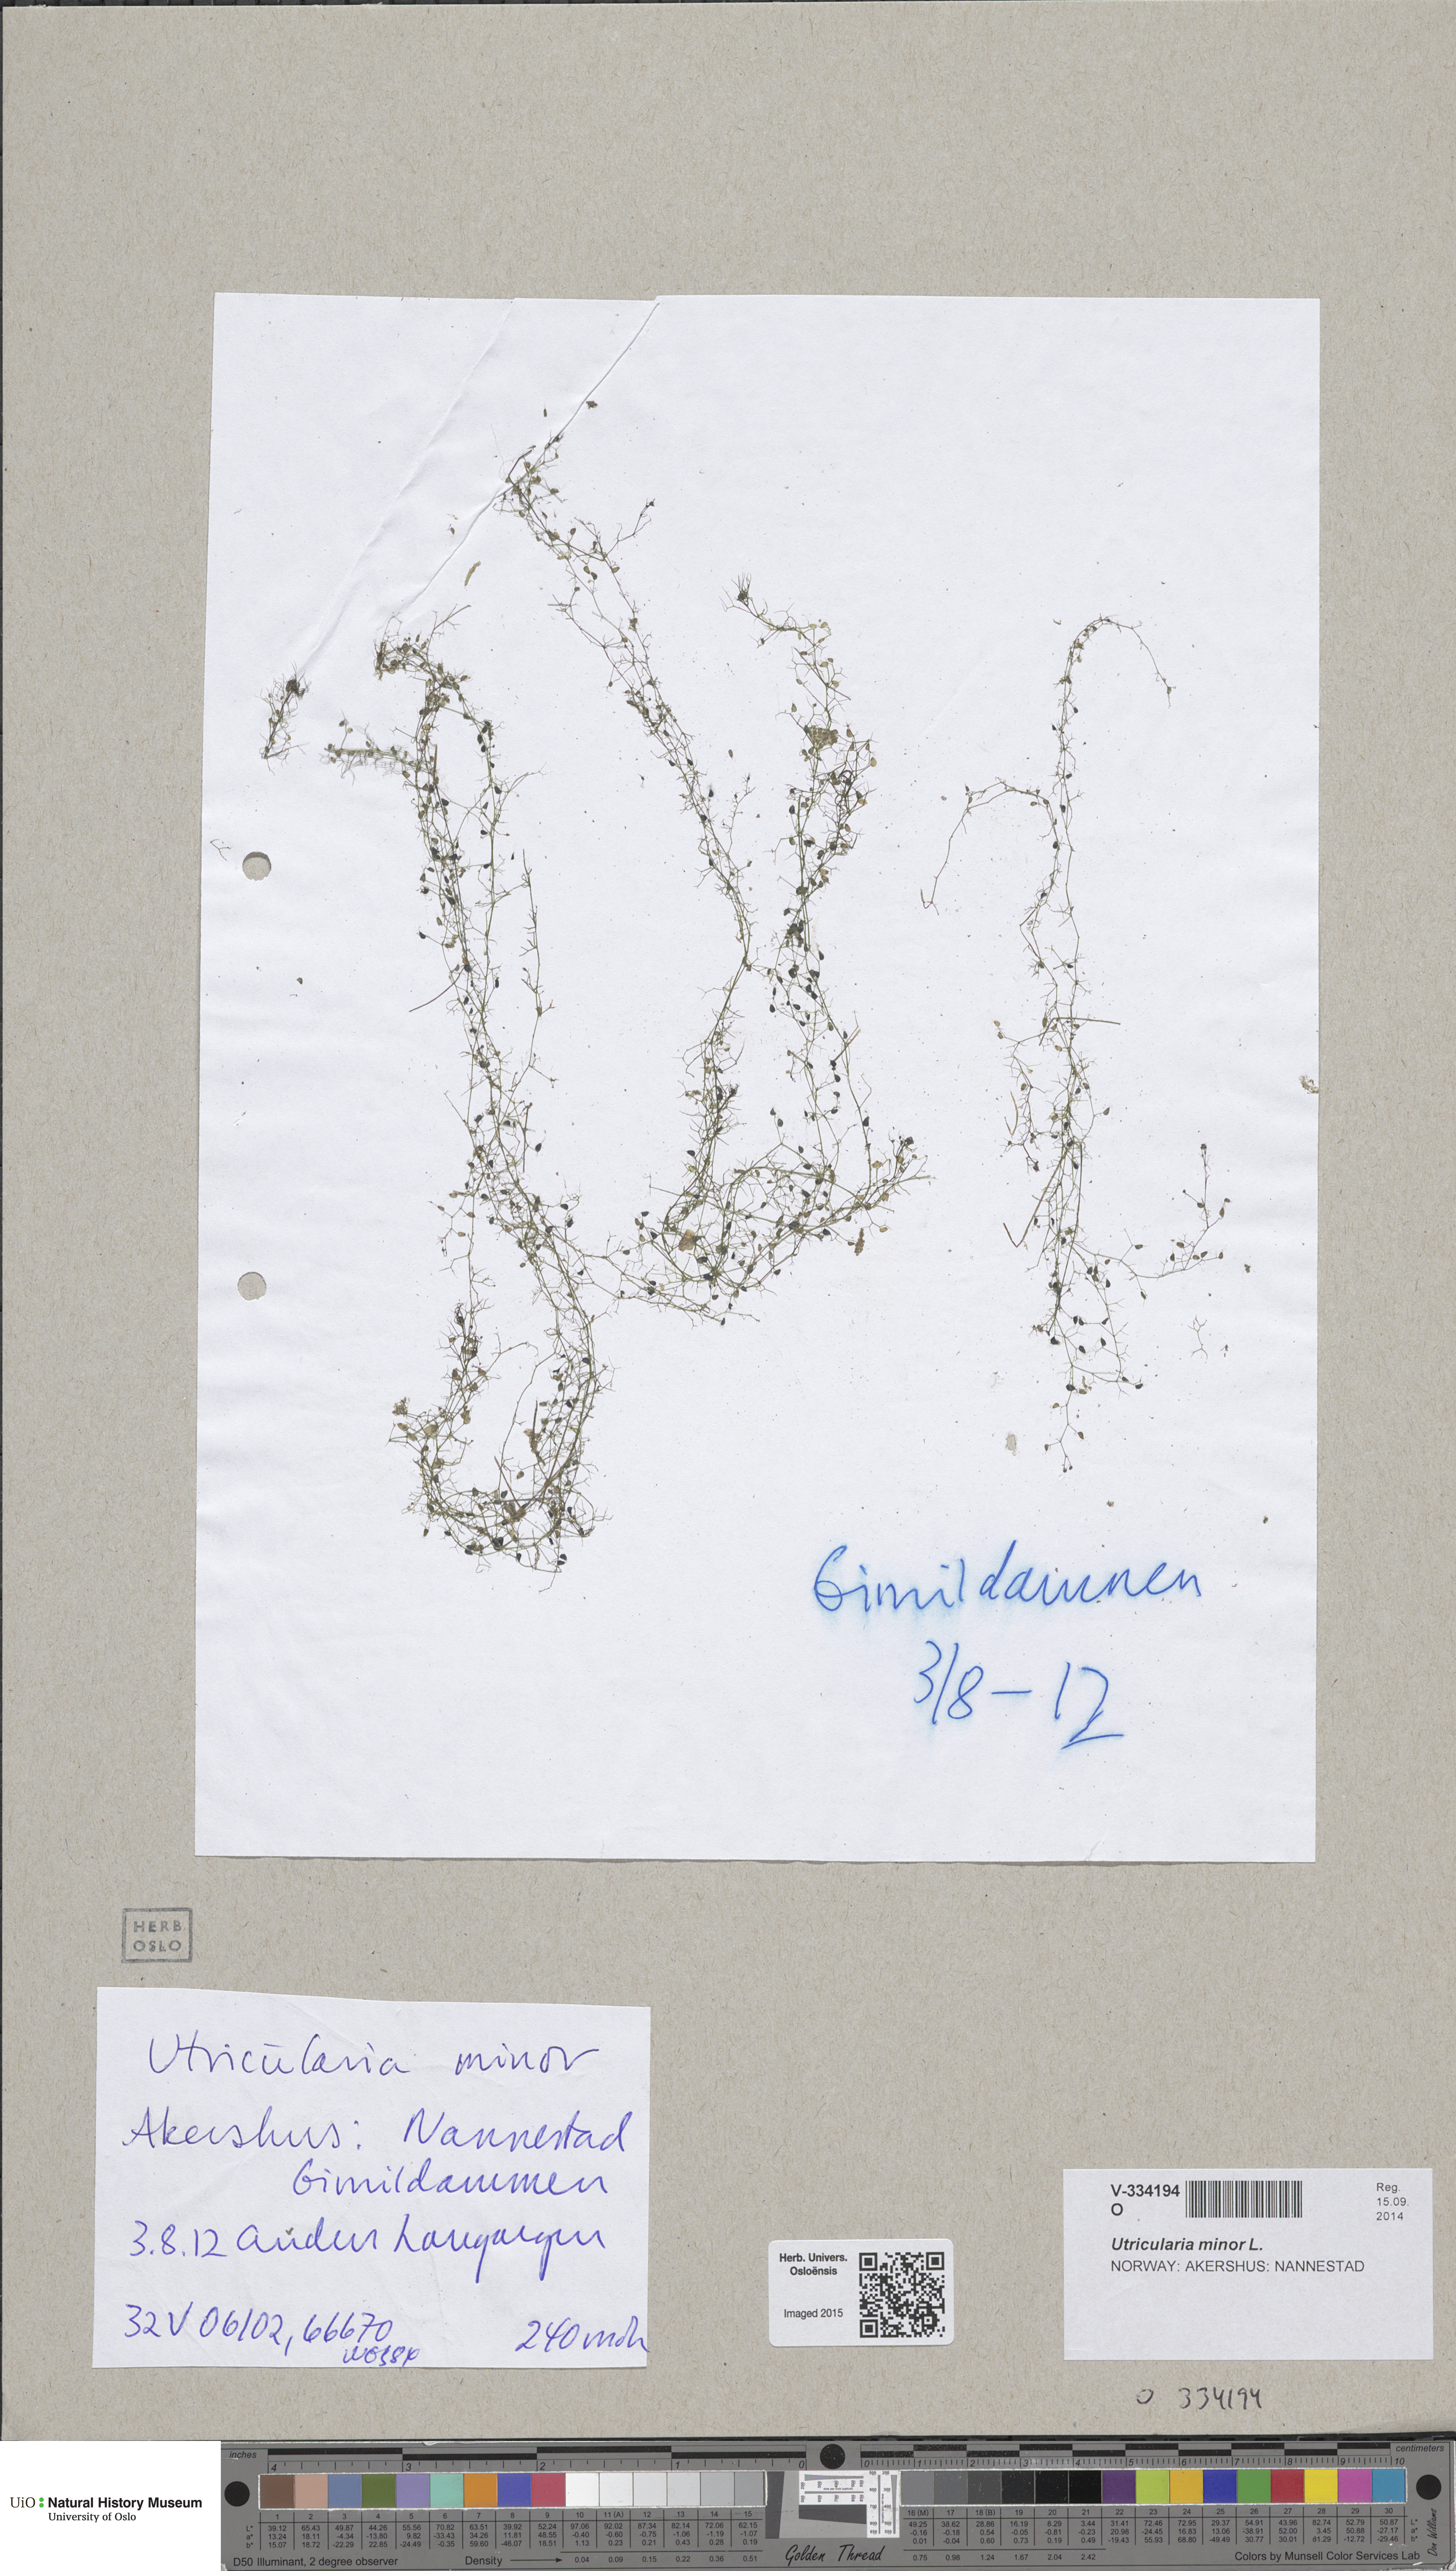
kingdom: Plantae
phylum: Tracheophyta
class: Magnoliopsida
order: Lamiales
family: Lentibulariaceae
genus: Utricularia
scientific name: Utricularia minor
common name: Lesser bladderwort
